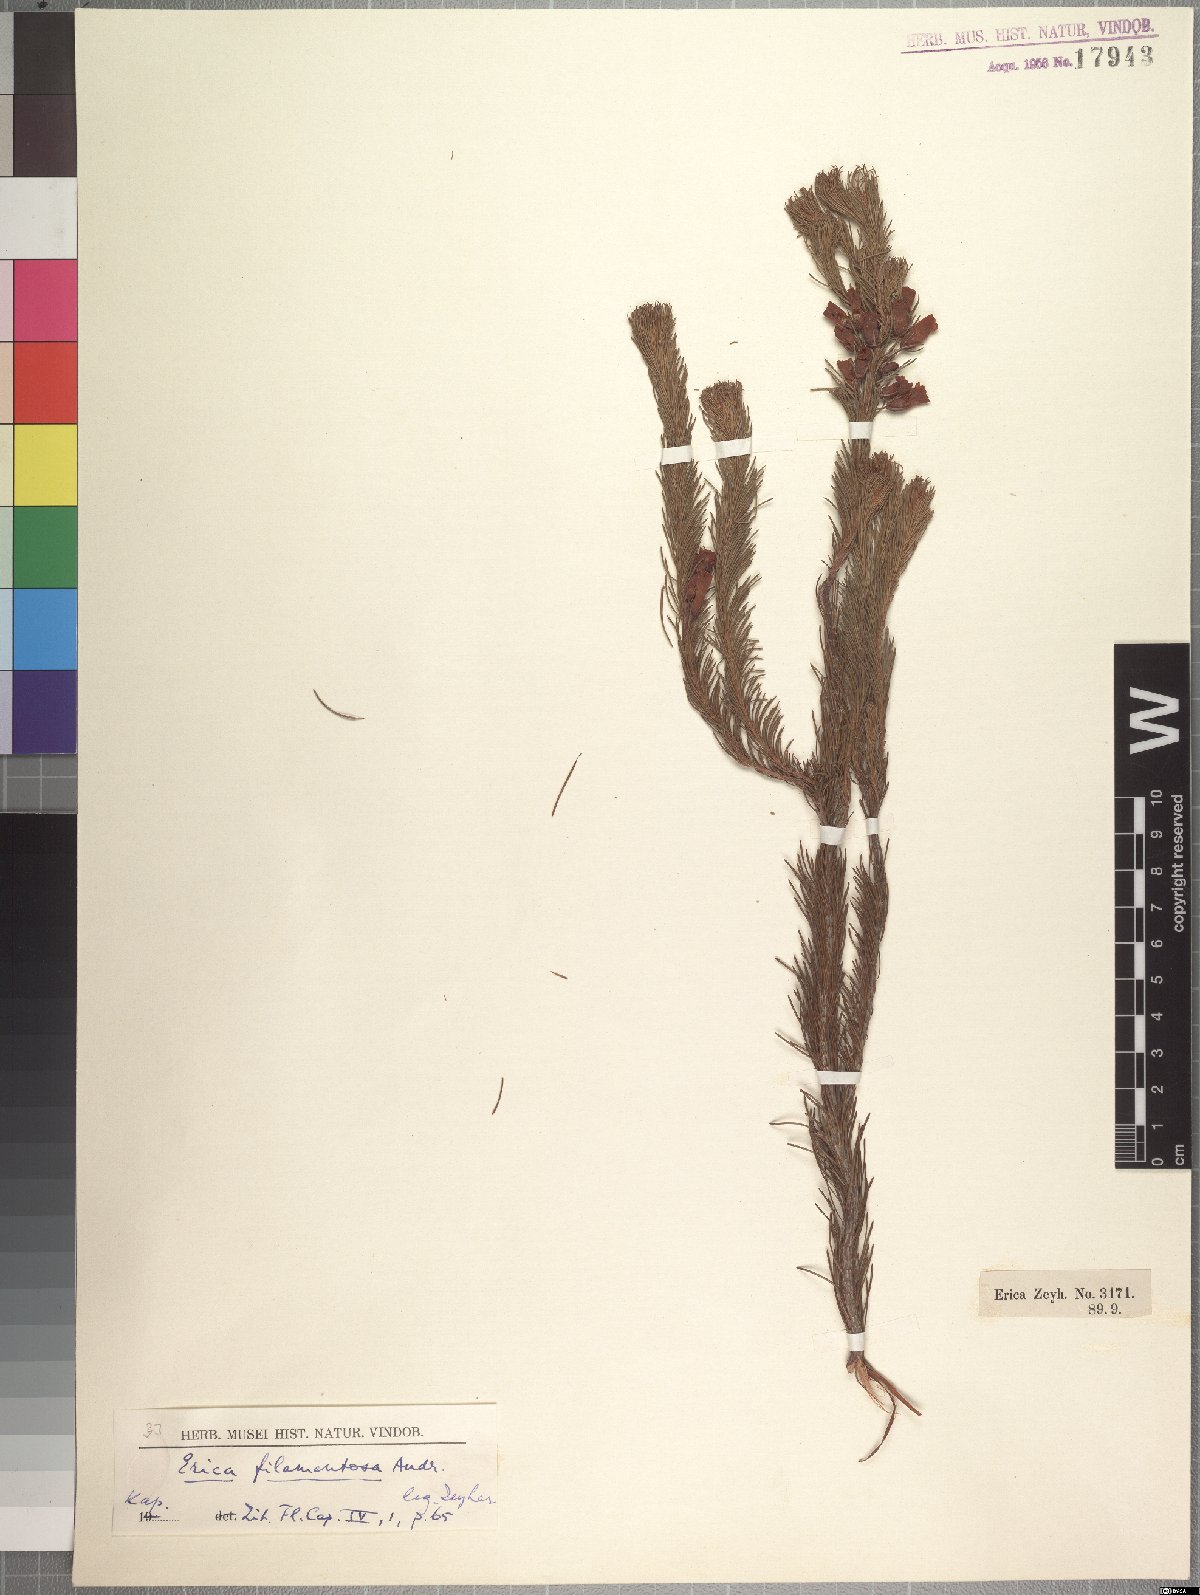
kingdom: Plantae
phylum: Tracheophyta
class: Magnoliopsida
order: Ericales
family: Ericaceae
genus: Erica
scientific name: Erica nematophylla
